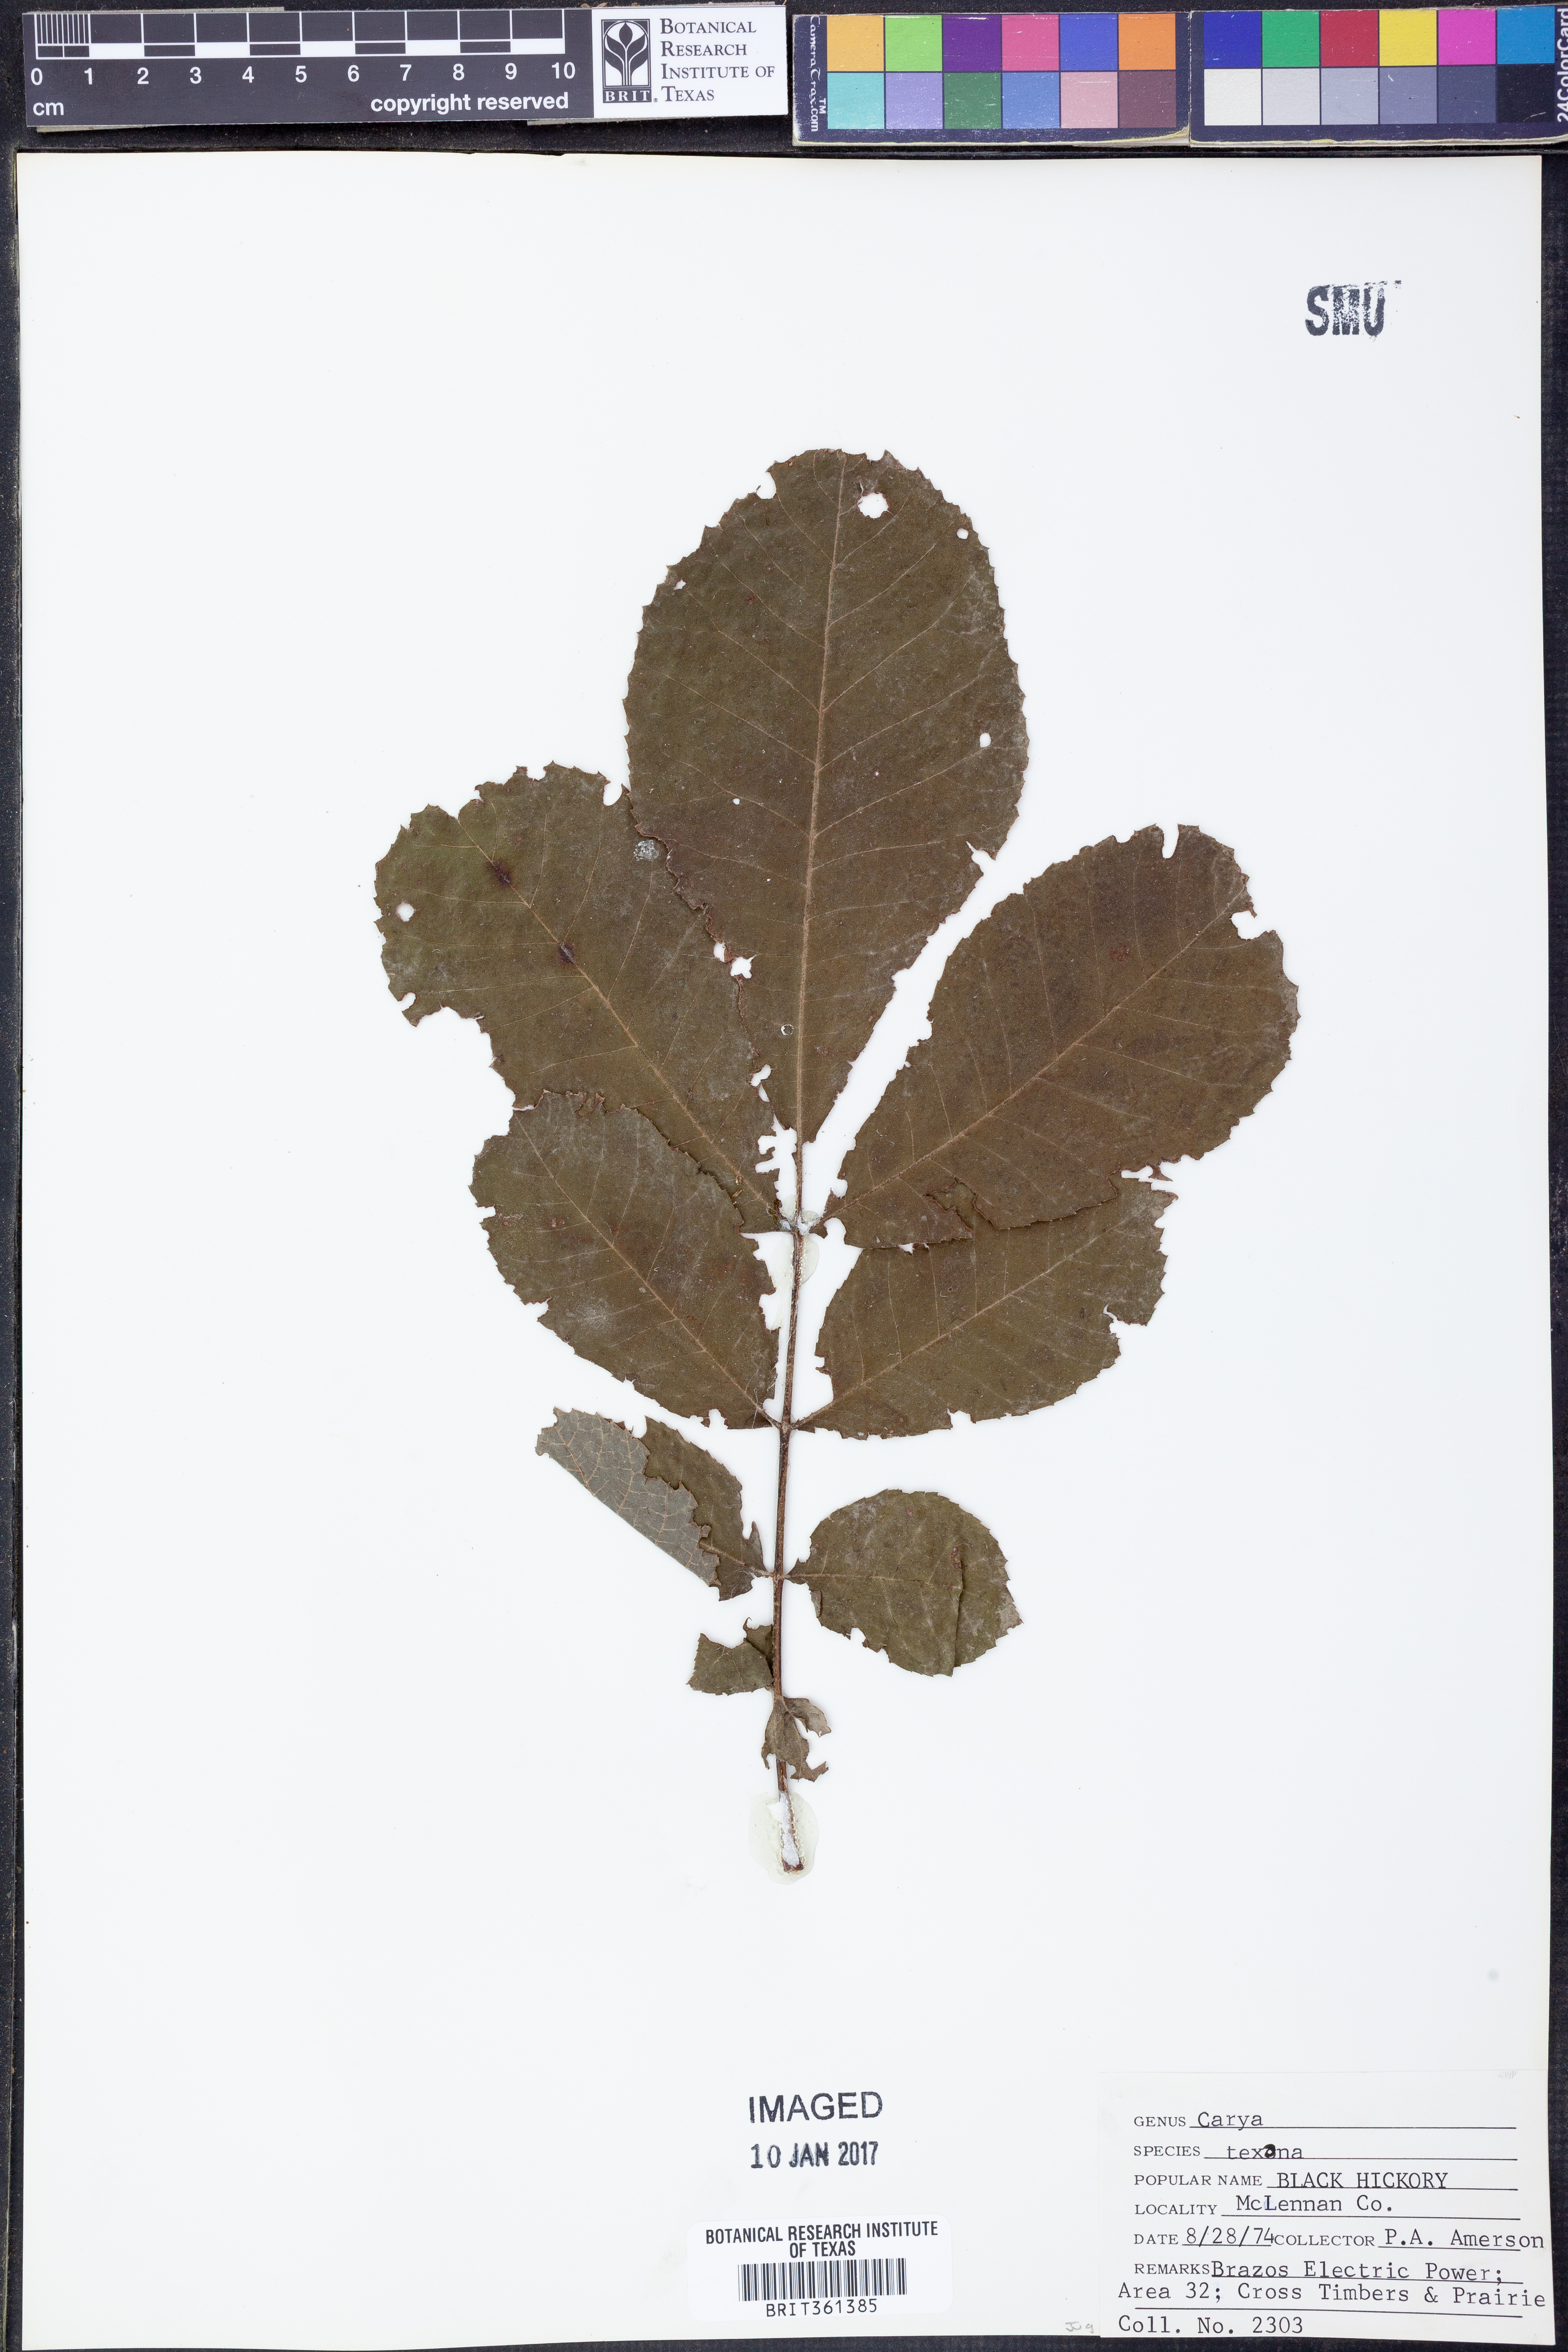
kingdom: Plantae
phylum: Tracheophyta
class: Magnoliopsida
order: Fagales
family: Juglandaceae
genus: Carya
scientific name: Carya texana
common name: Black hickory
